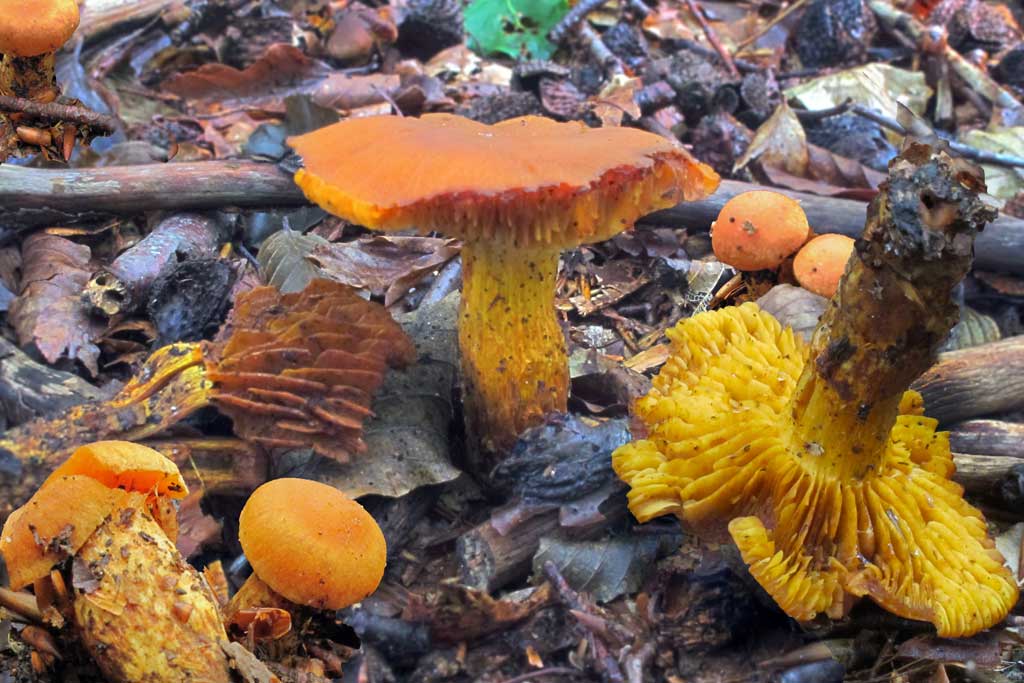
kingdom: Fungi
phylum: Basidiomycota
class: Agaricomycetes
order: Agaricales
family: Cortinariaceae
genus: Aureonarius
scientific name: Aureonarius limonius
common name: orangegul slørhat
